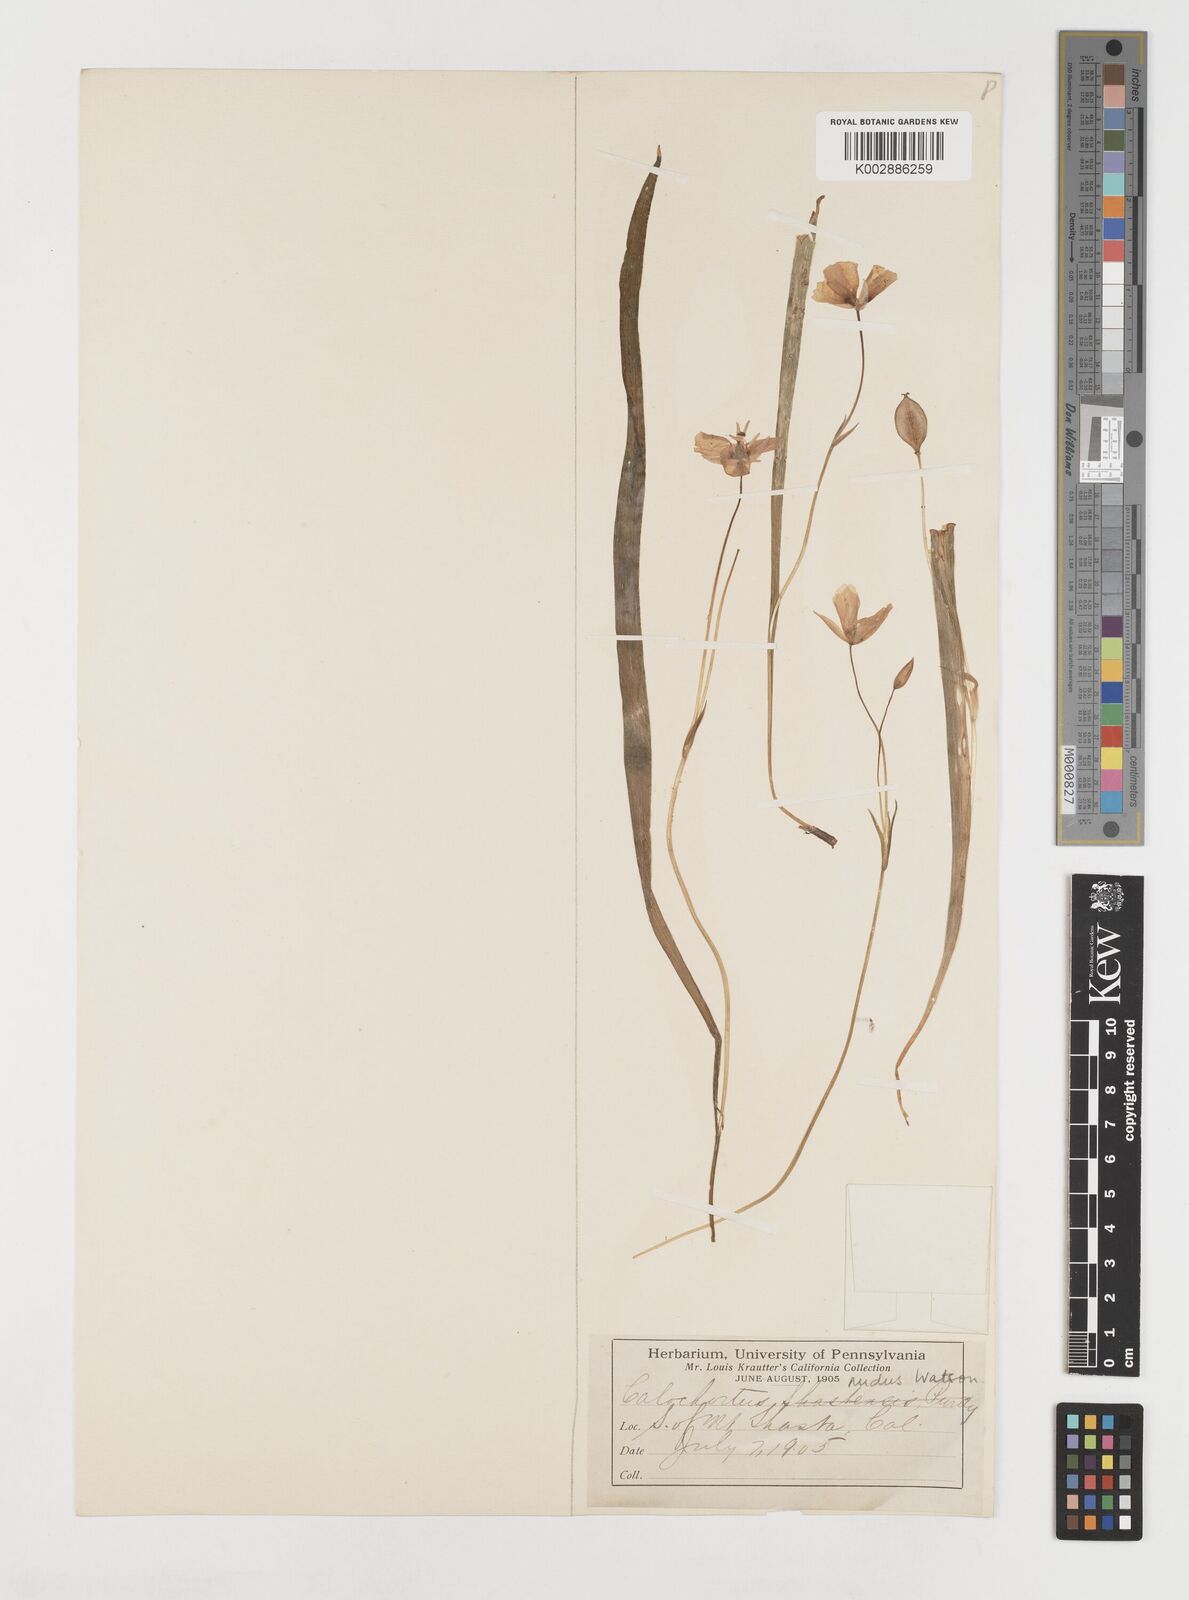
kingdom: Plantae
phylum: Tracheophyta
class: Liliopsida
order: Liliales
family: Liliaceae
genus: Calochortus
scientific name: Calochortus nudus
